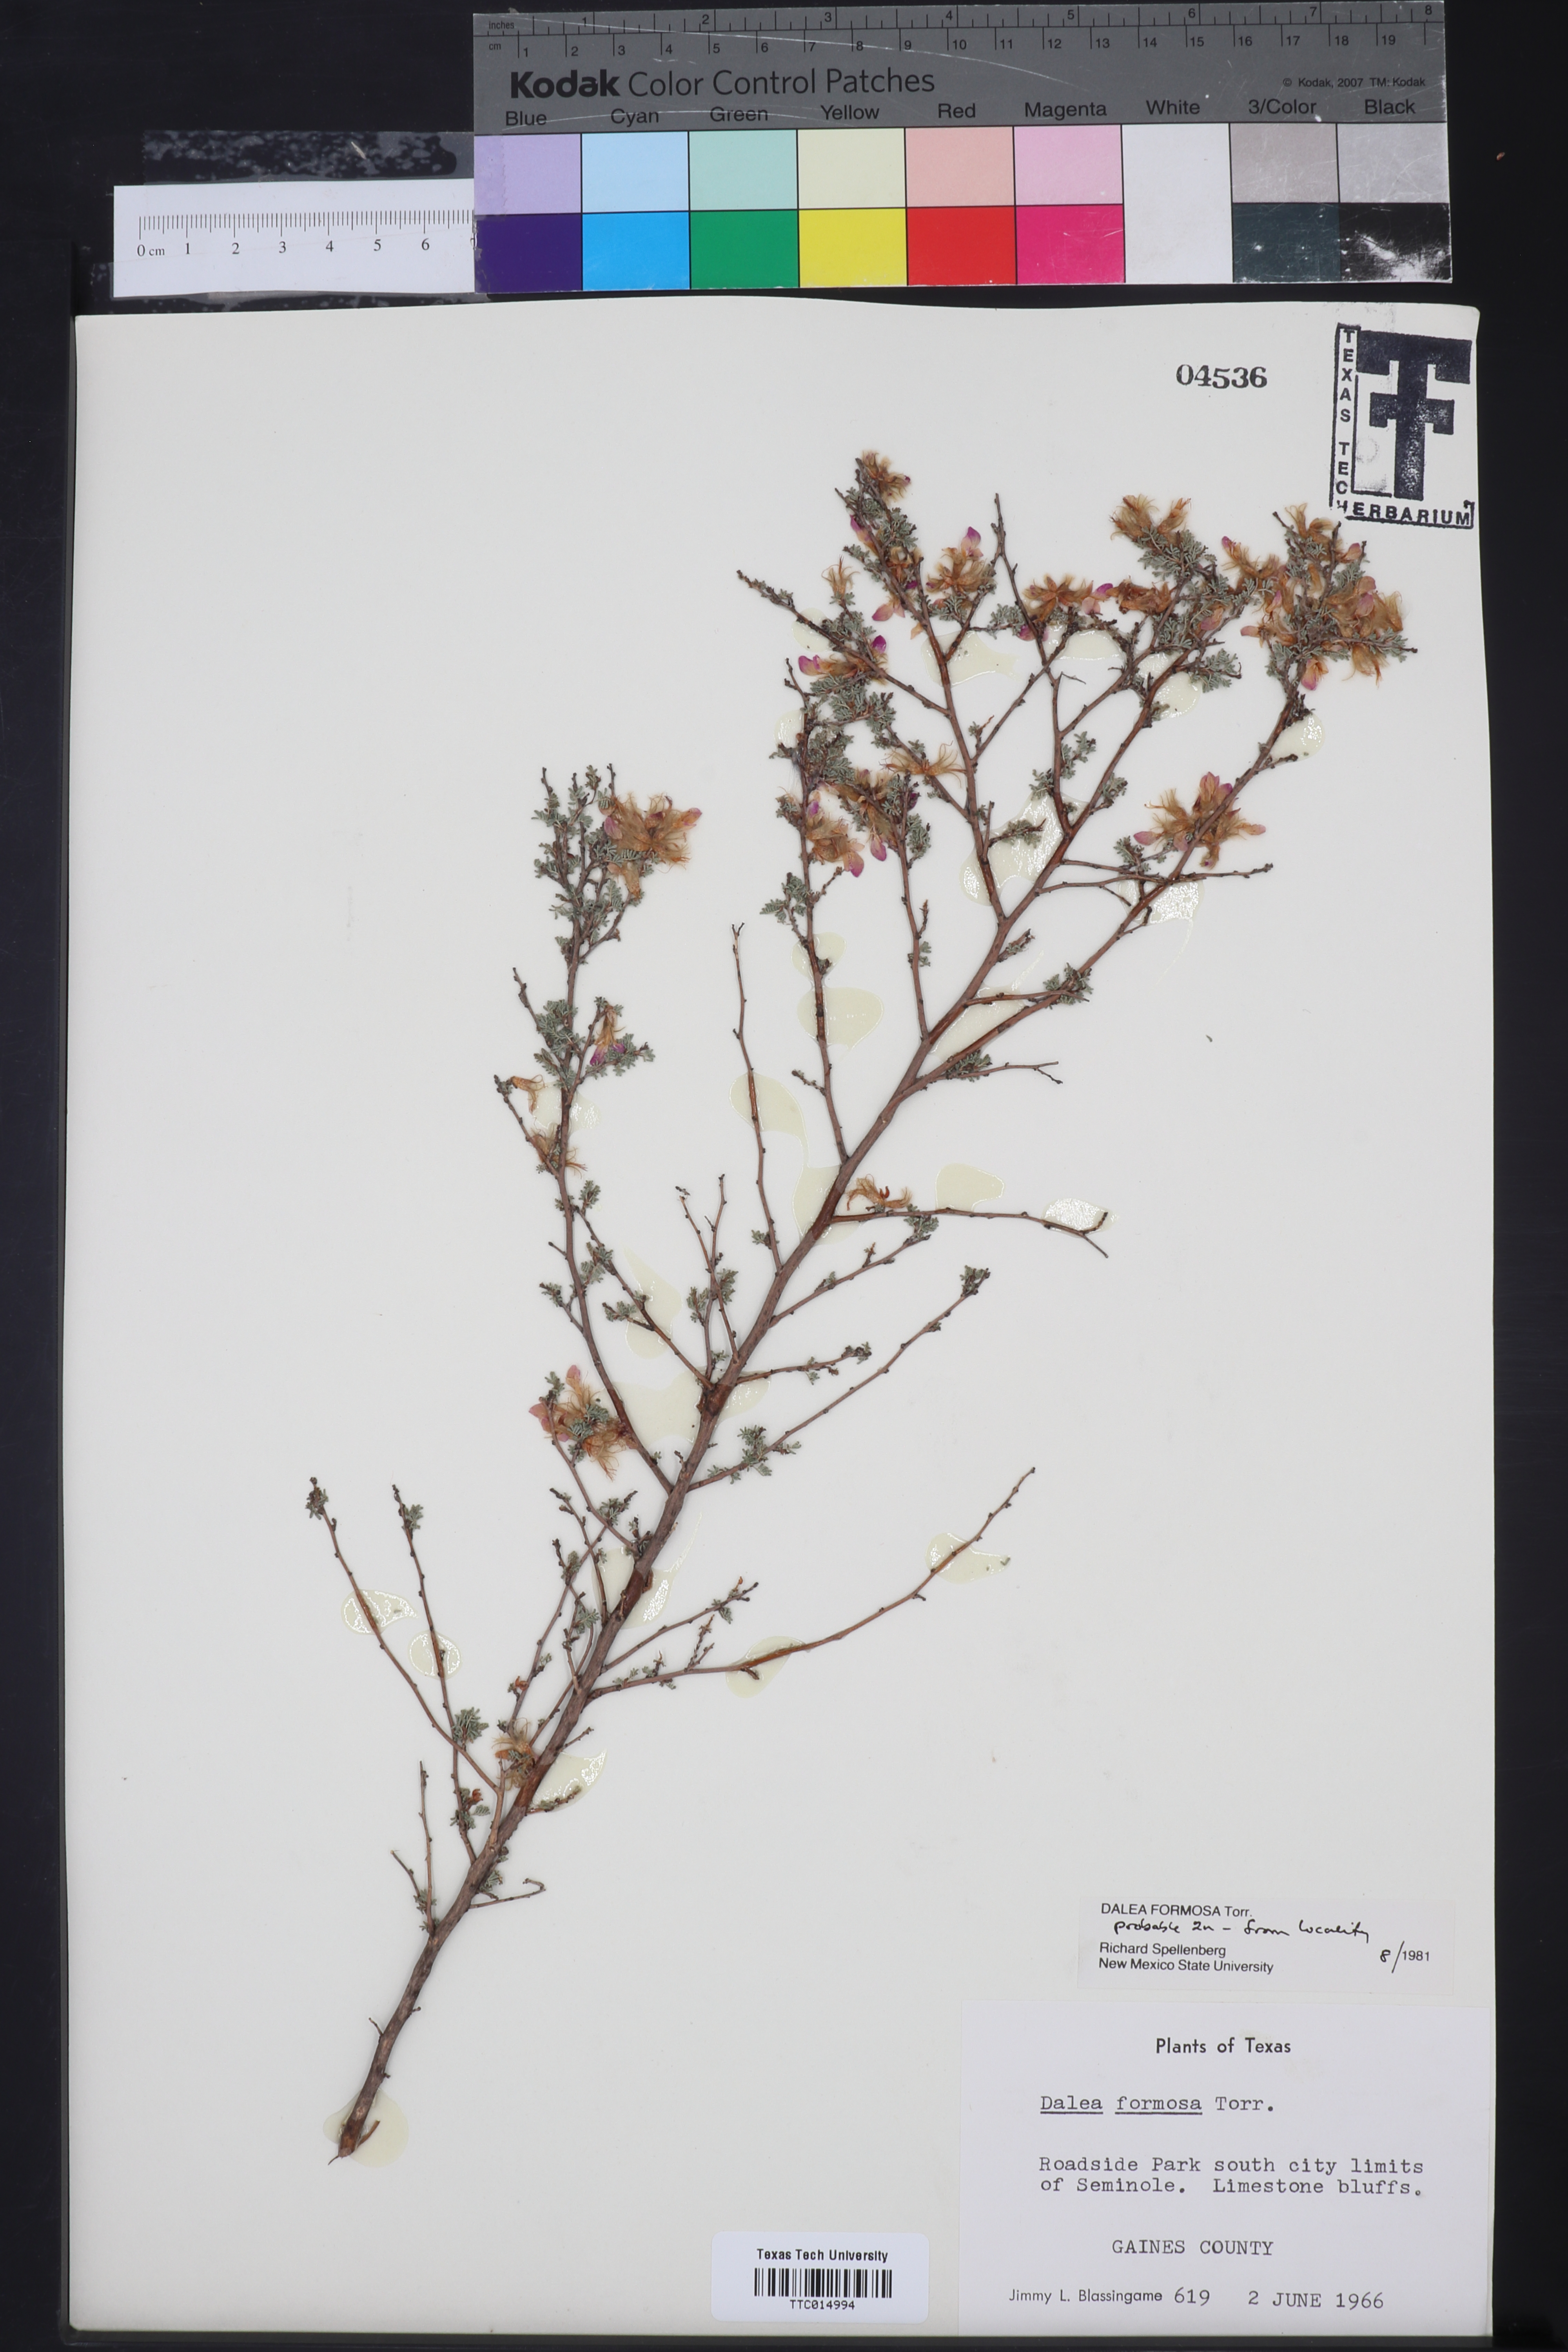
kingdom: Plantae
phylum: Tracheophyta
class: Magnoliopsida
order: Fabales
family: Fabaceae
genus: Dalea
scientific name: Dalea formosa
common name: Feather-plume dalea
